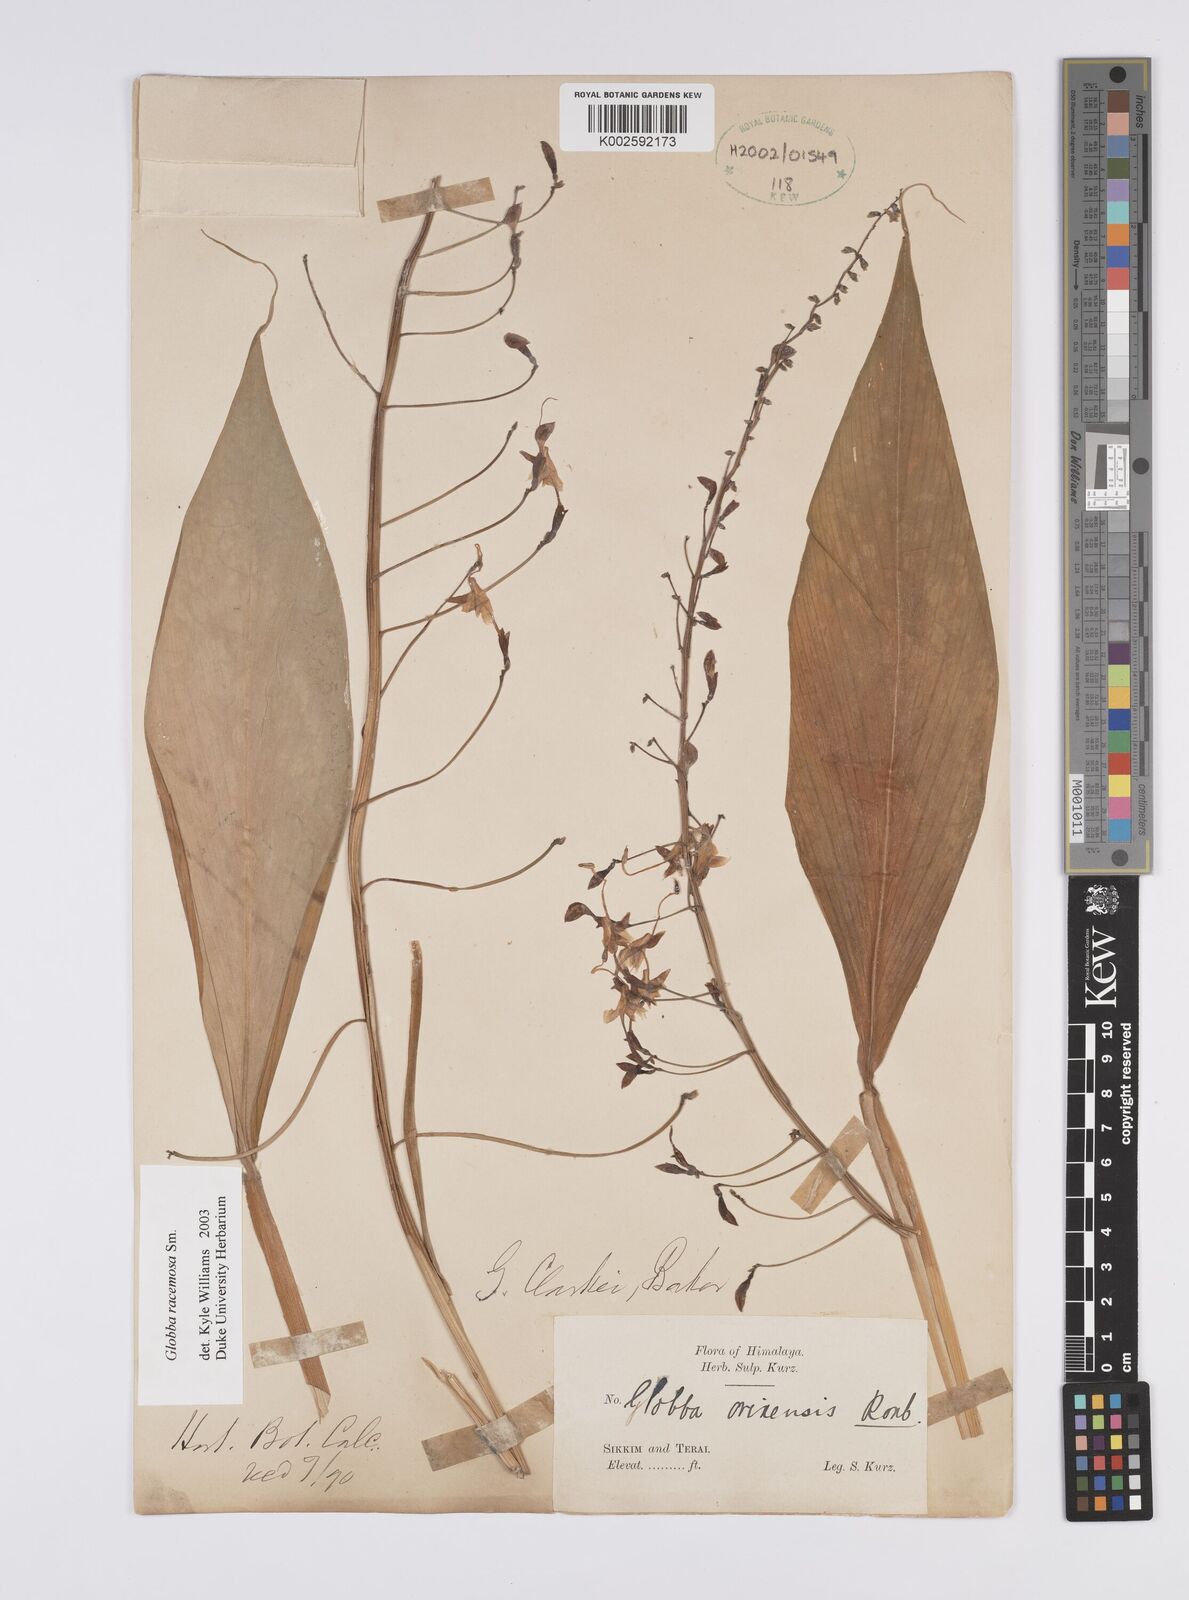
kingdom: Plantae
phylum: Tracheophyta
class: Liliopsida
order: Zingiberales
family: Zingiberaceae
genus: Globba
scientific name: Globba racemosa
